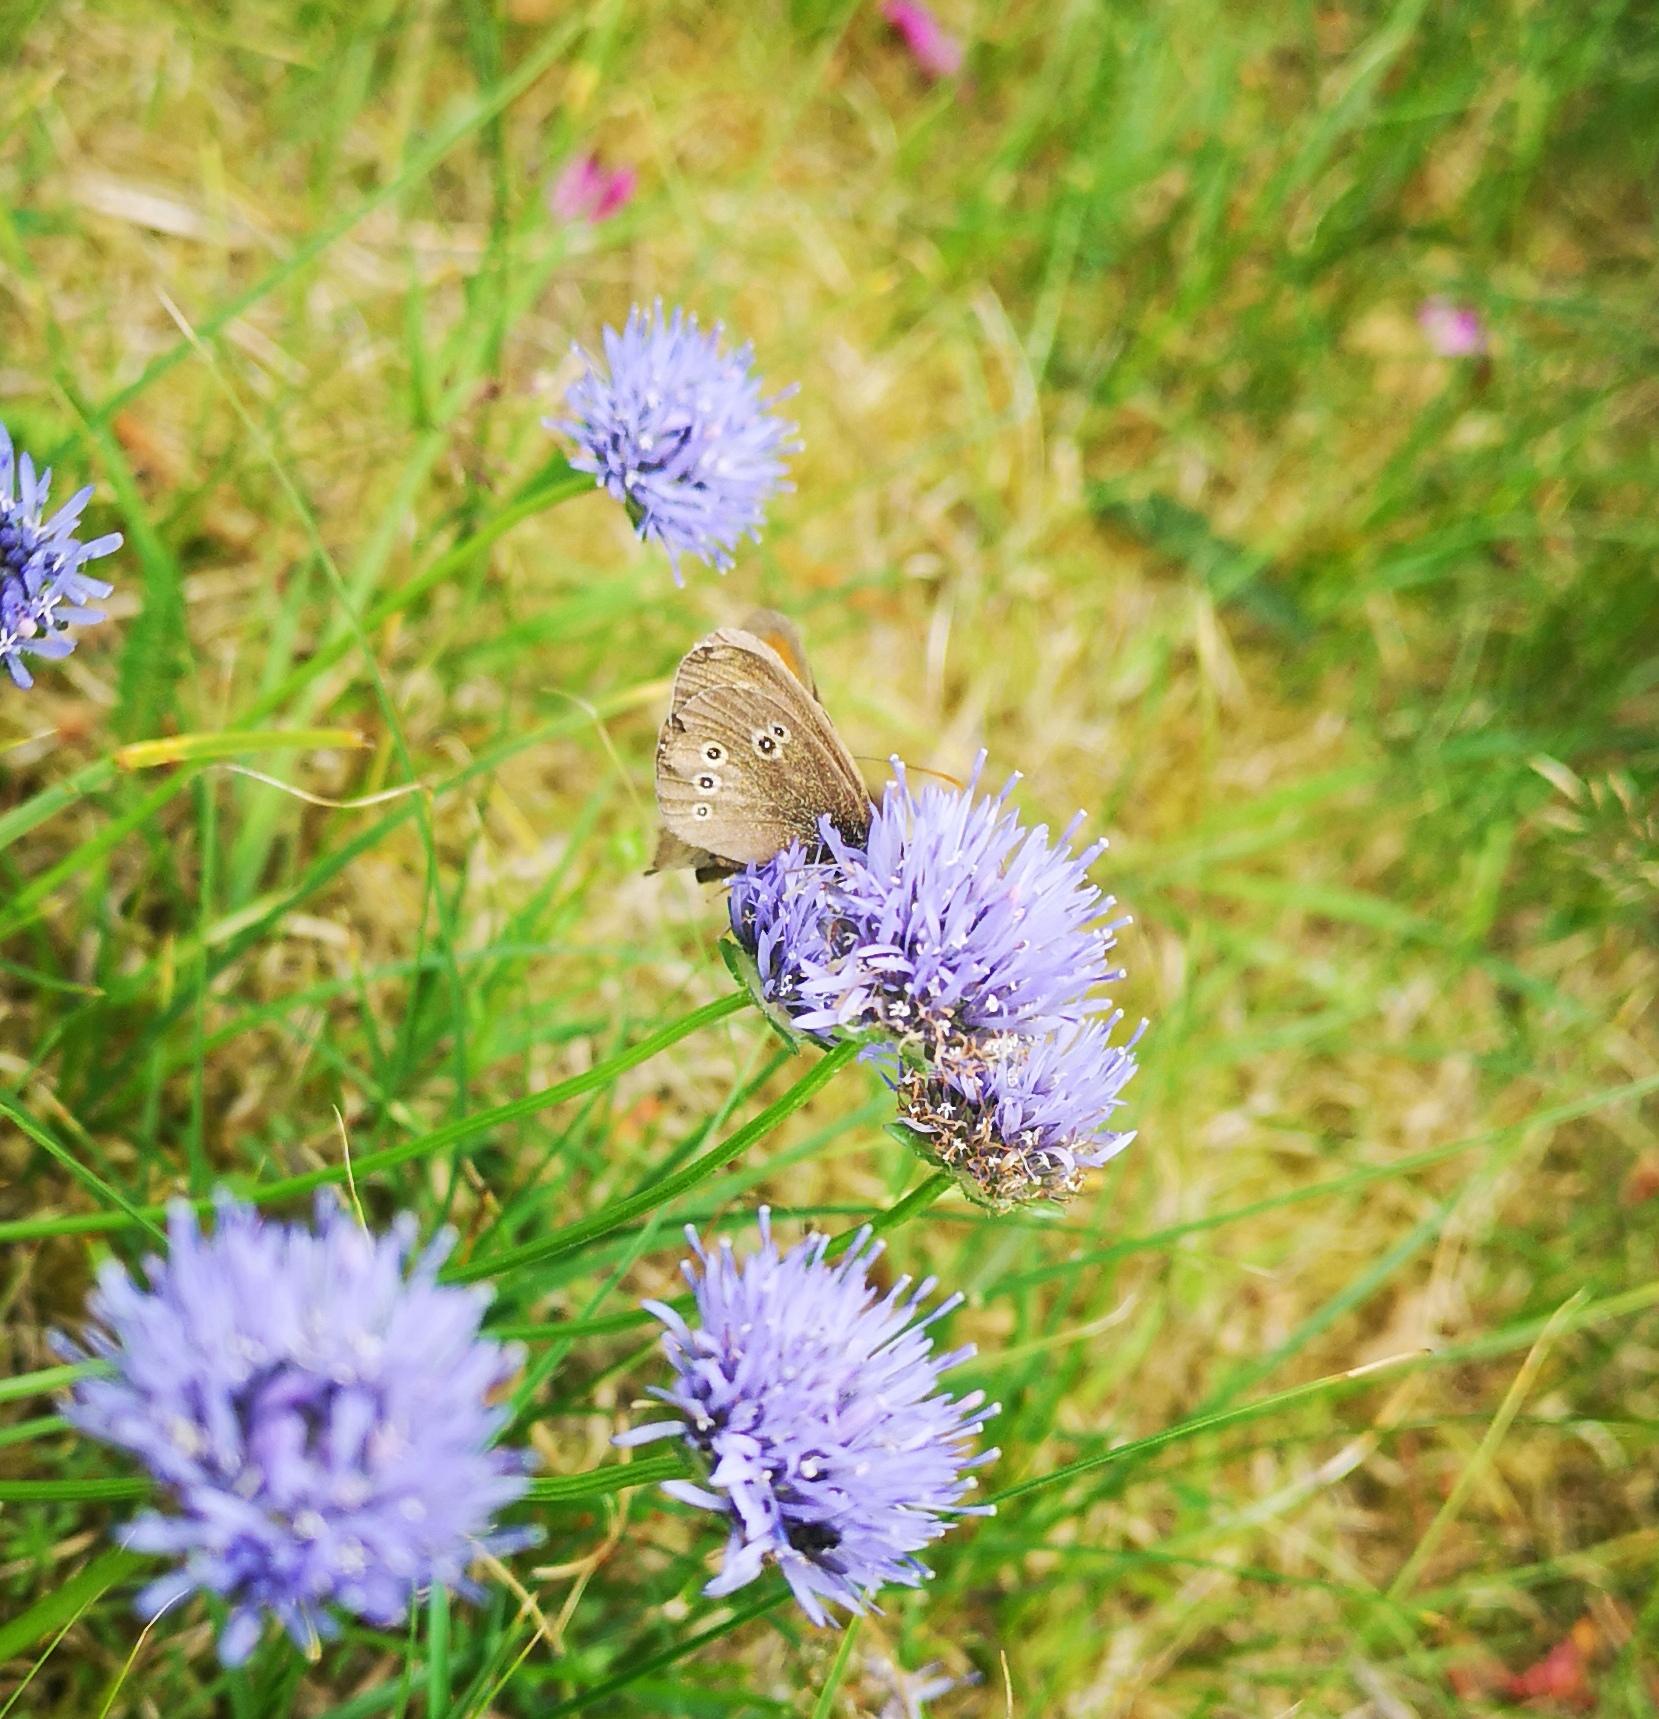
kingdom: Animalia
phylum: Arthropoda
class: Insecta
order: Lepidoptera
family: Nymphalidae
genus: Aphantopus
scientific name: Aphantopus hyperantus
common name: Engrandøje
